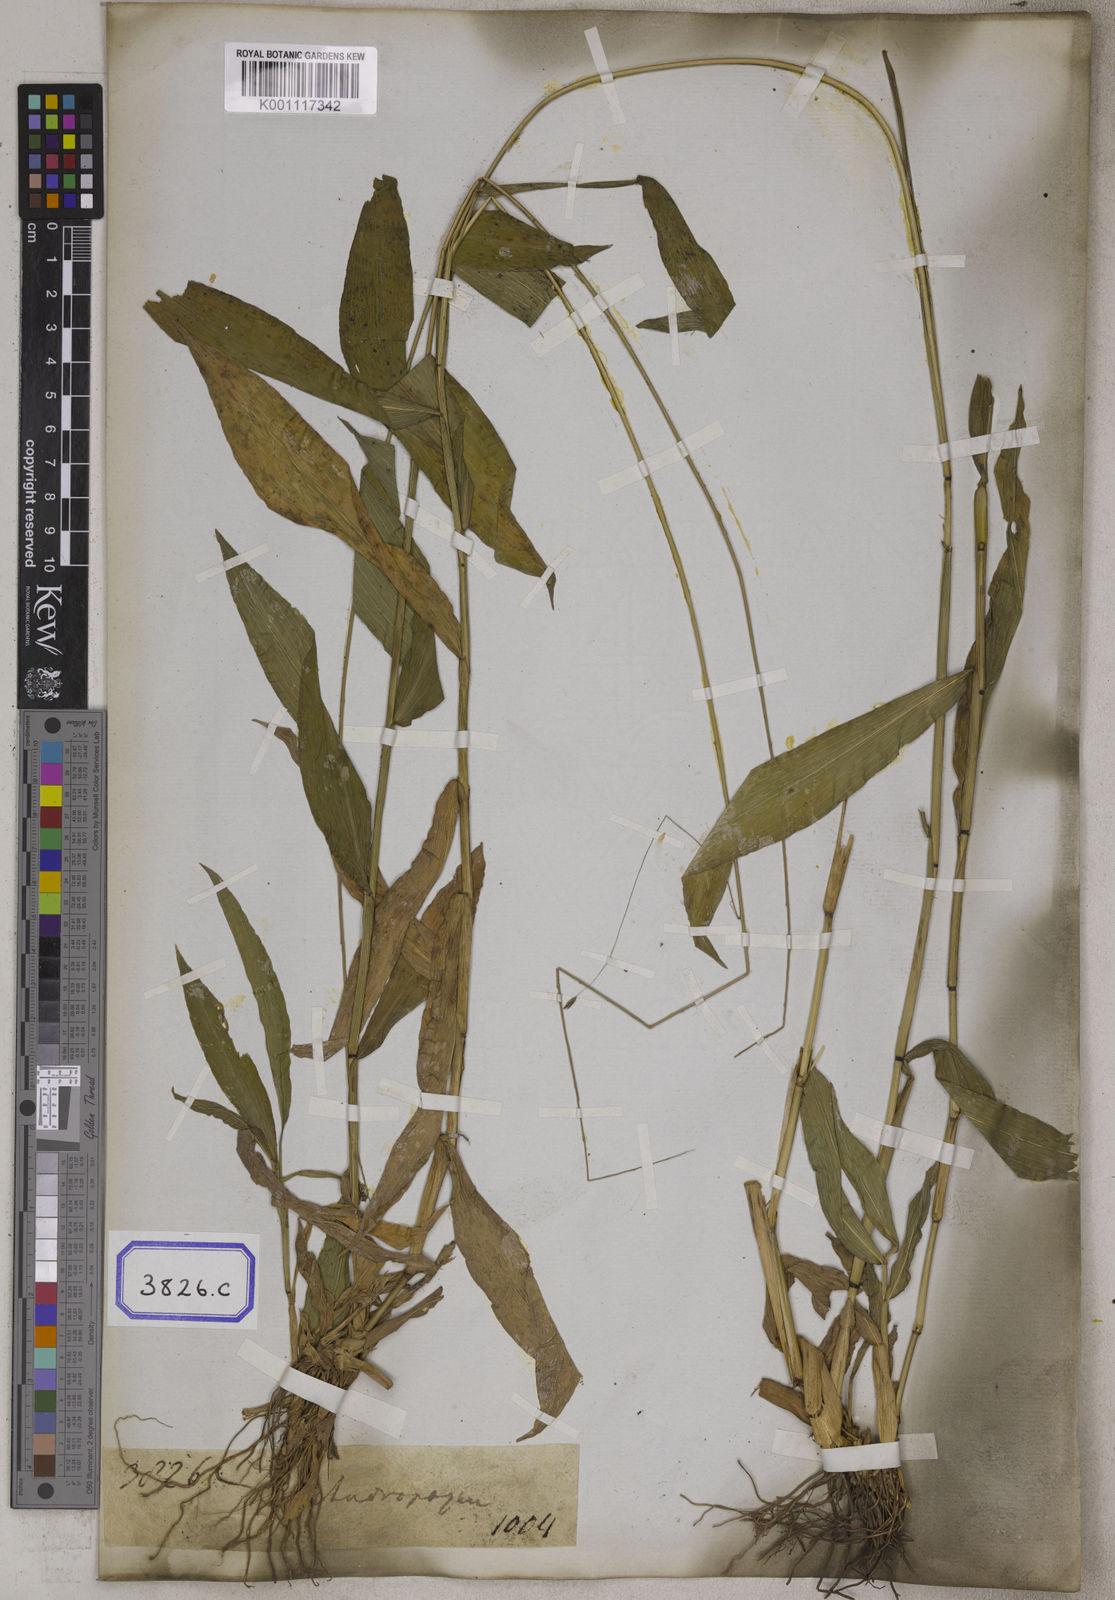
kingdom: Plantae
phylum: Tracheophyta
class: Liliopsida
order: Poales
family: Poaceae
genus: Centotheca
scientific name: Centotheca lappacea
